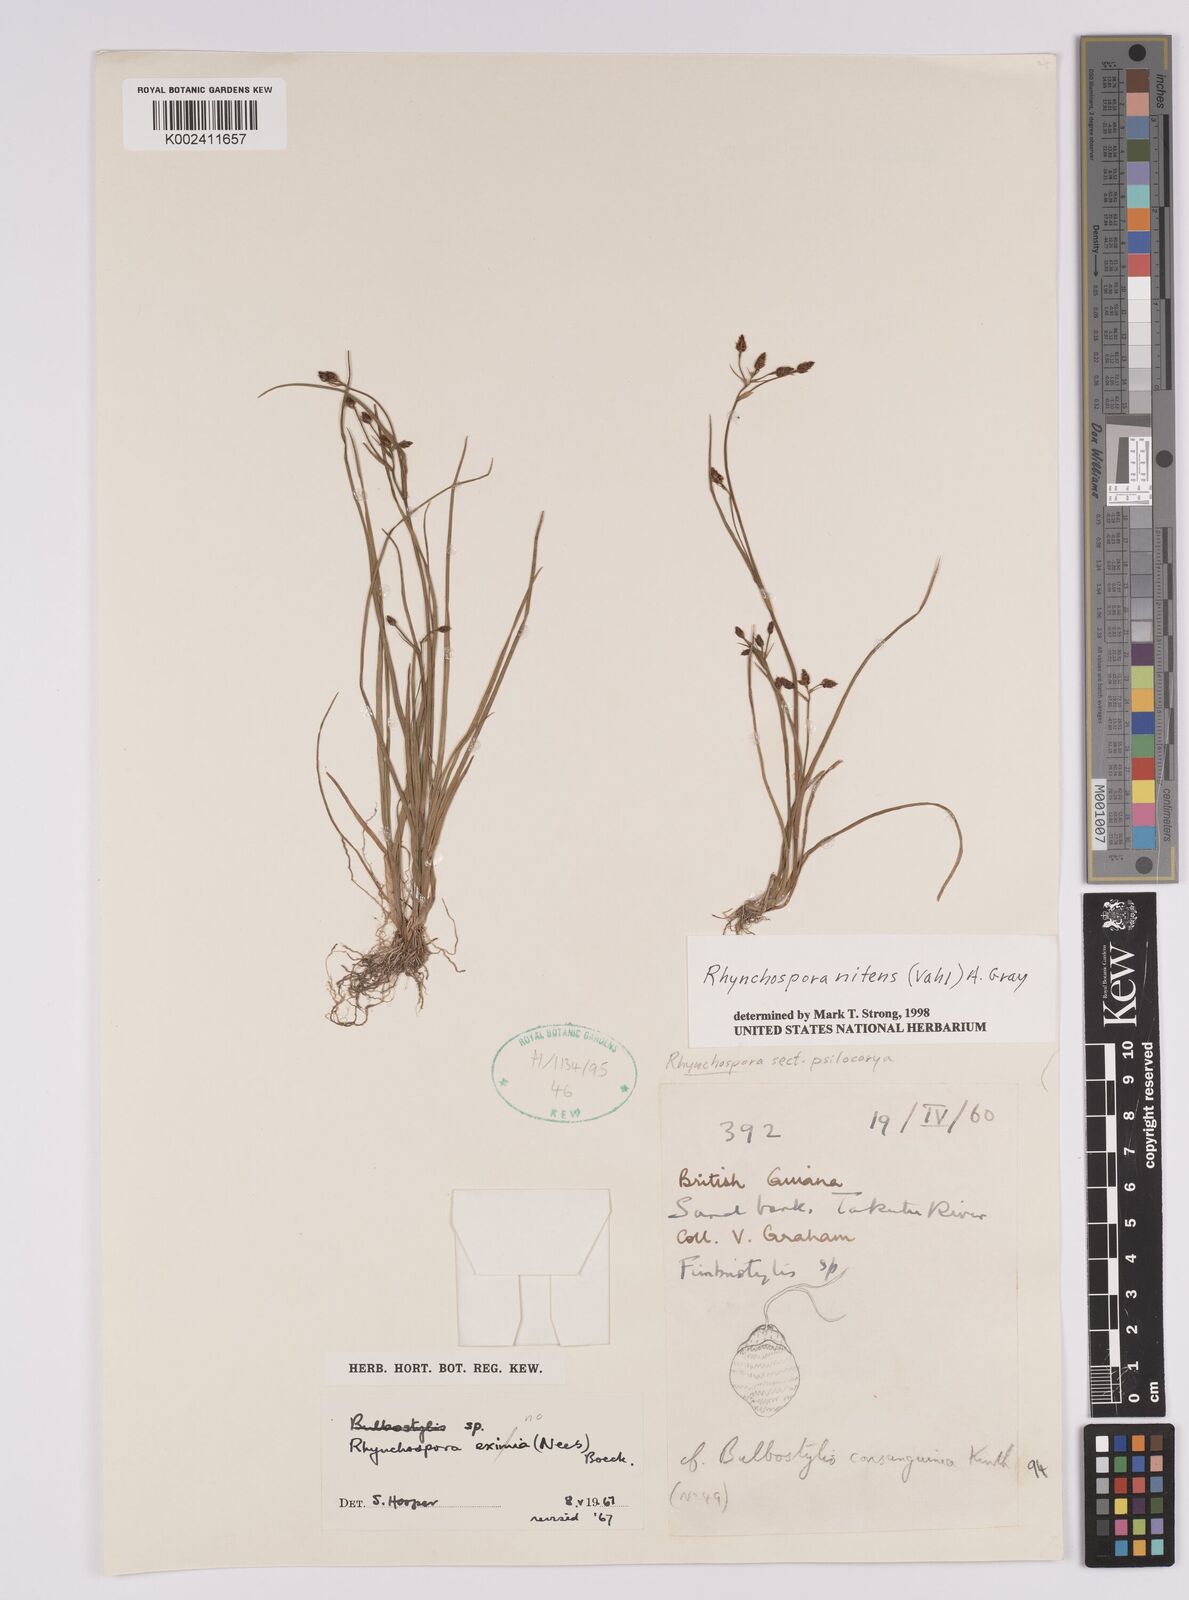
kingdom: Plantae
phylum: Tracheophyta
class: Liliopsida
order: Poales
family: Cyperaceae
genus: Rhynchospora
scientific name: Rhynchospora nitens
